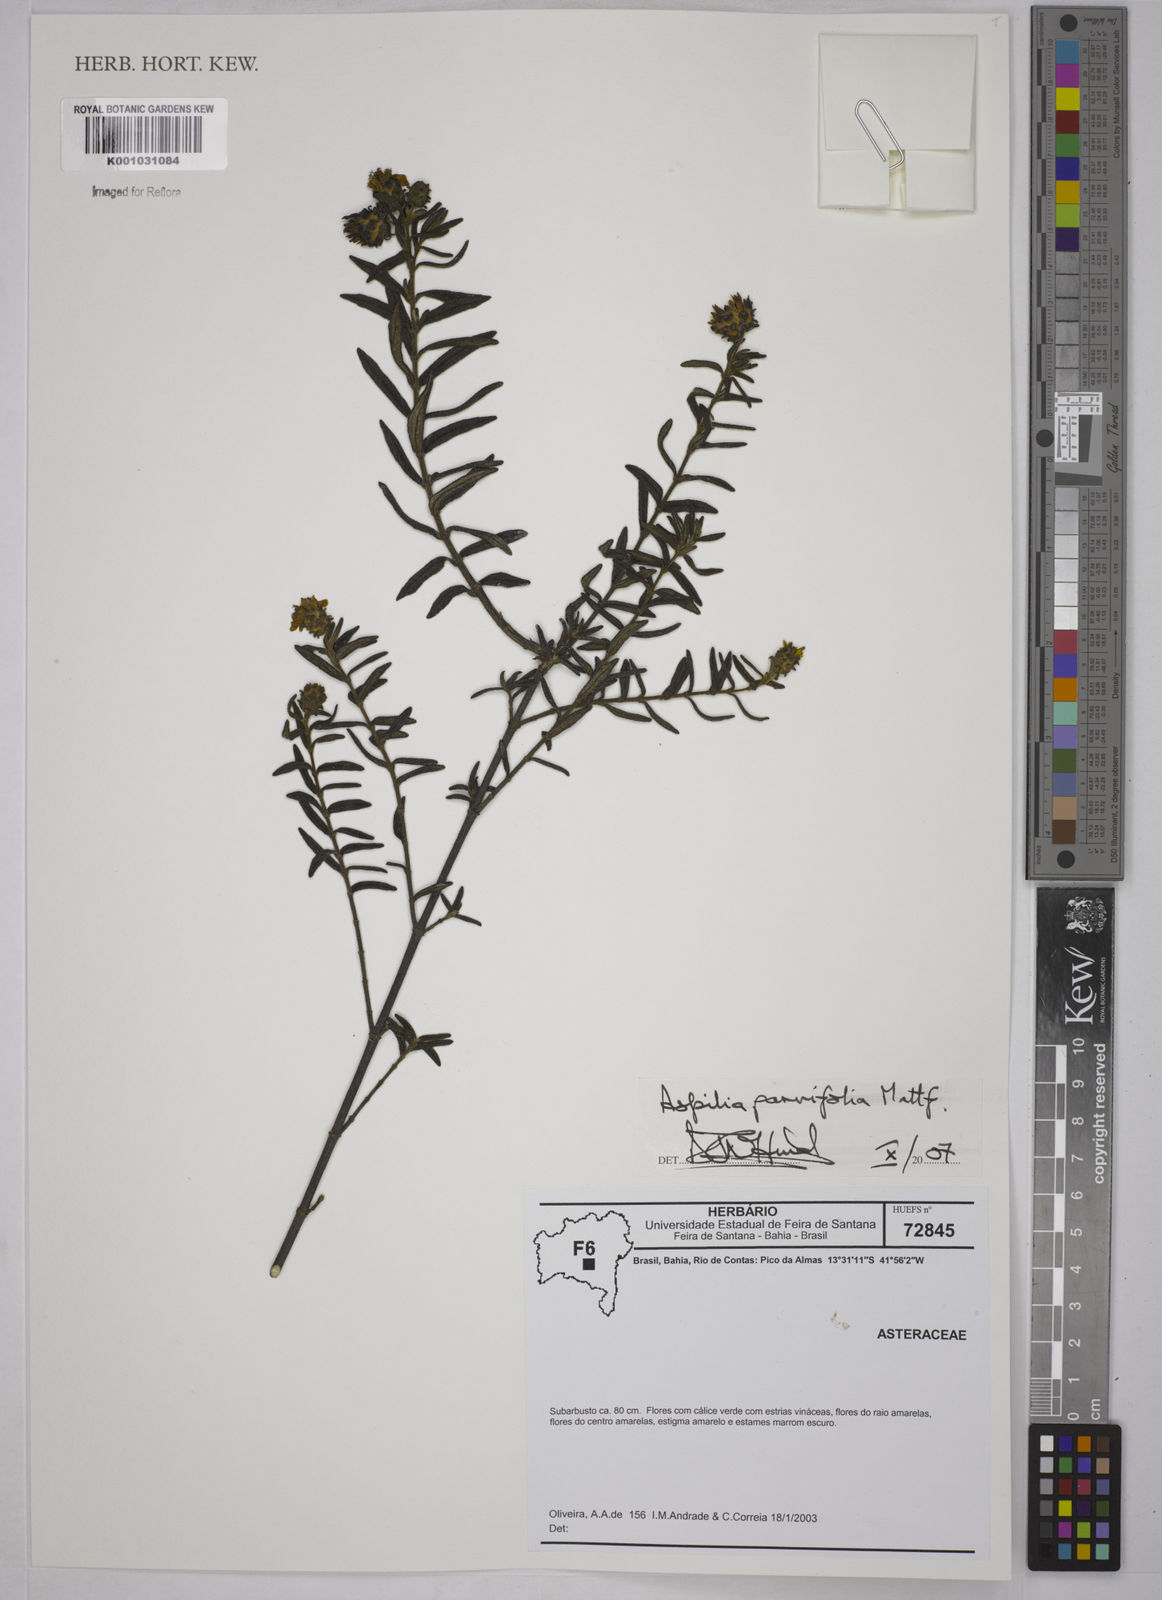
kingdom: Plantae
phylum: Tracheophyta
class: Magnoliopsida
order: Asterales
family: Asteraceae
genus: Aspilia
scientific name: Aspilia foliosa
